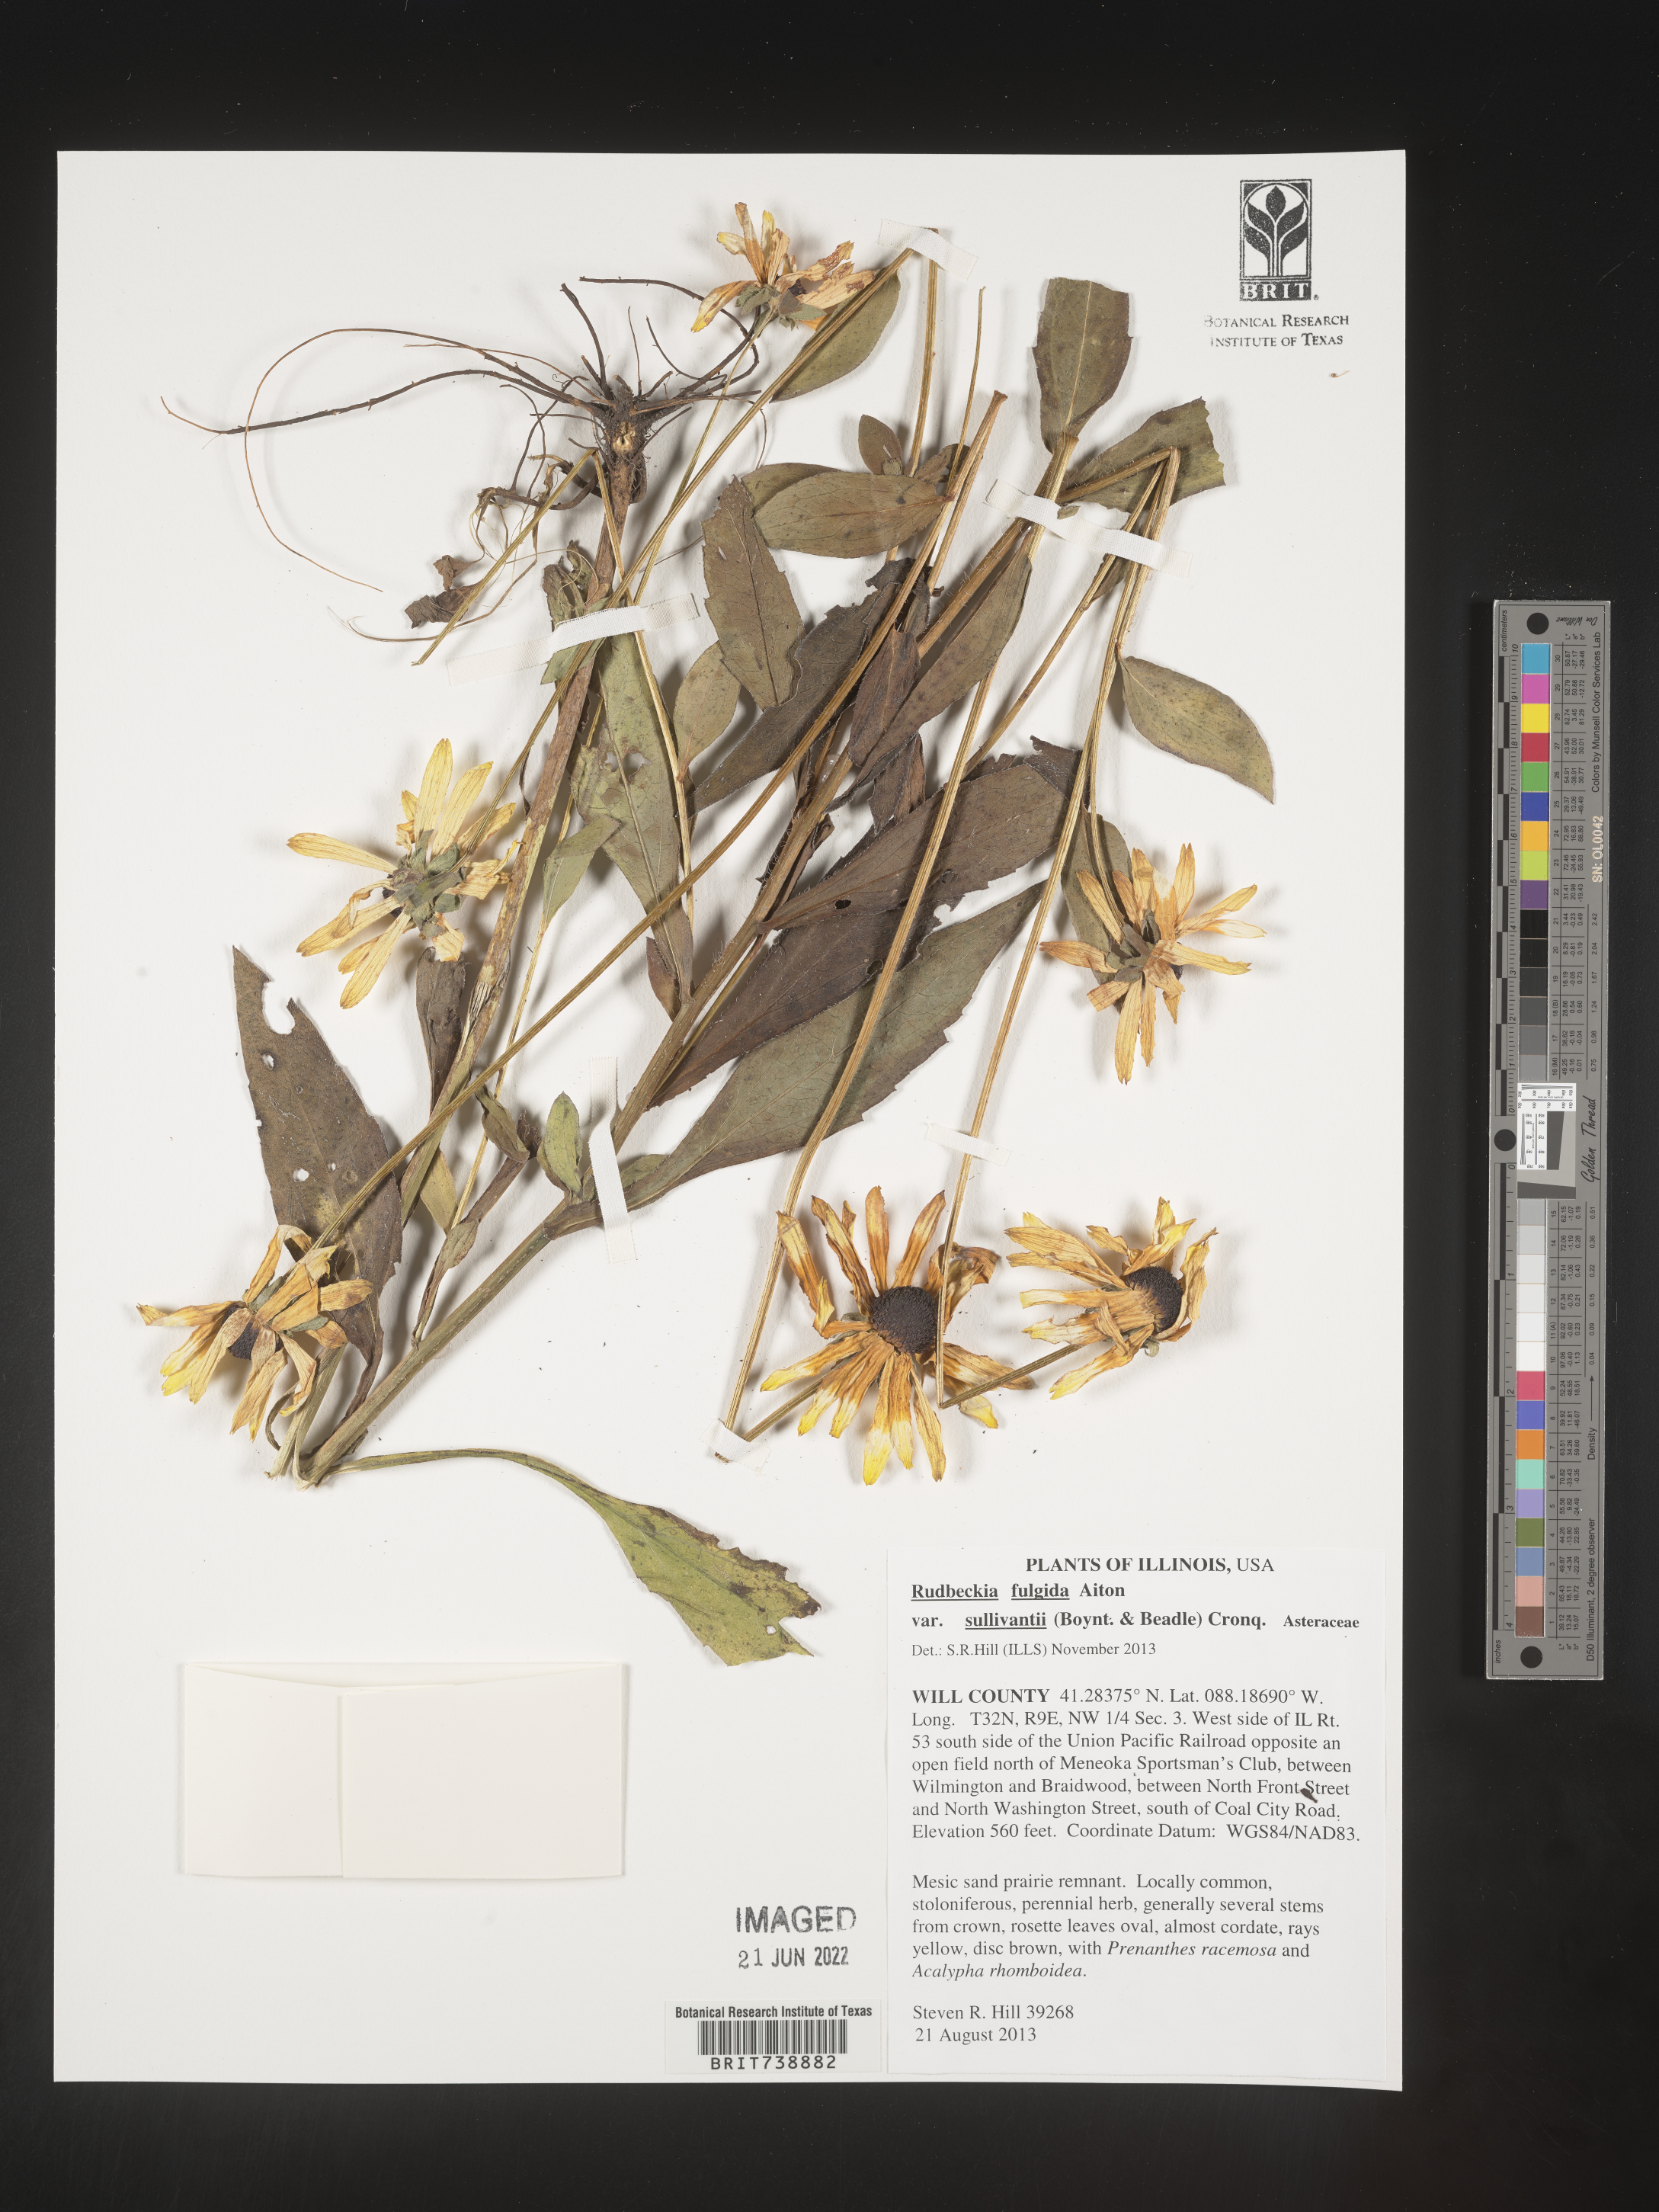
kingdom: Plantae
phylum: Tracheophyta
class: Magnoliopsida
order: Asterales
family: Asteraceae
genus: Rudbeckia
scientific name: Rudbeckia fulgida
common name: Perennial coneflower
